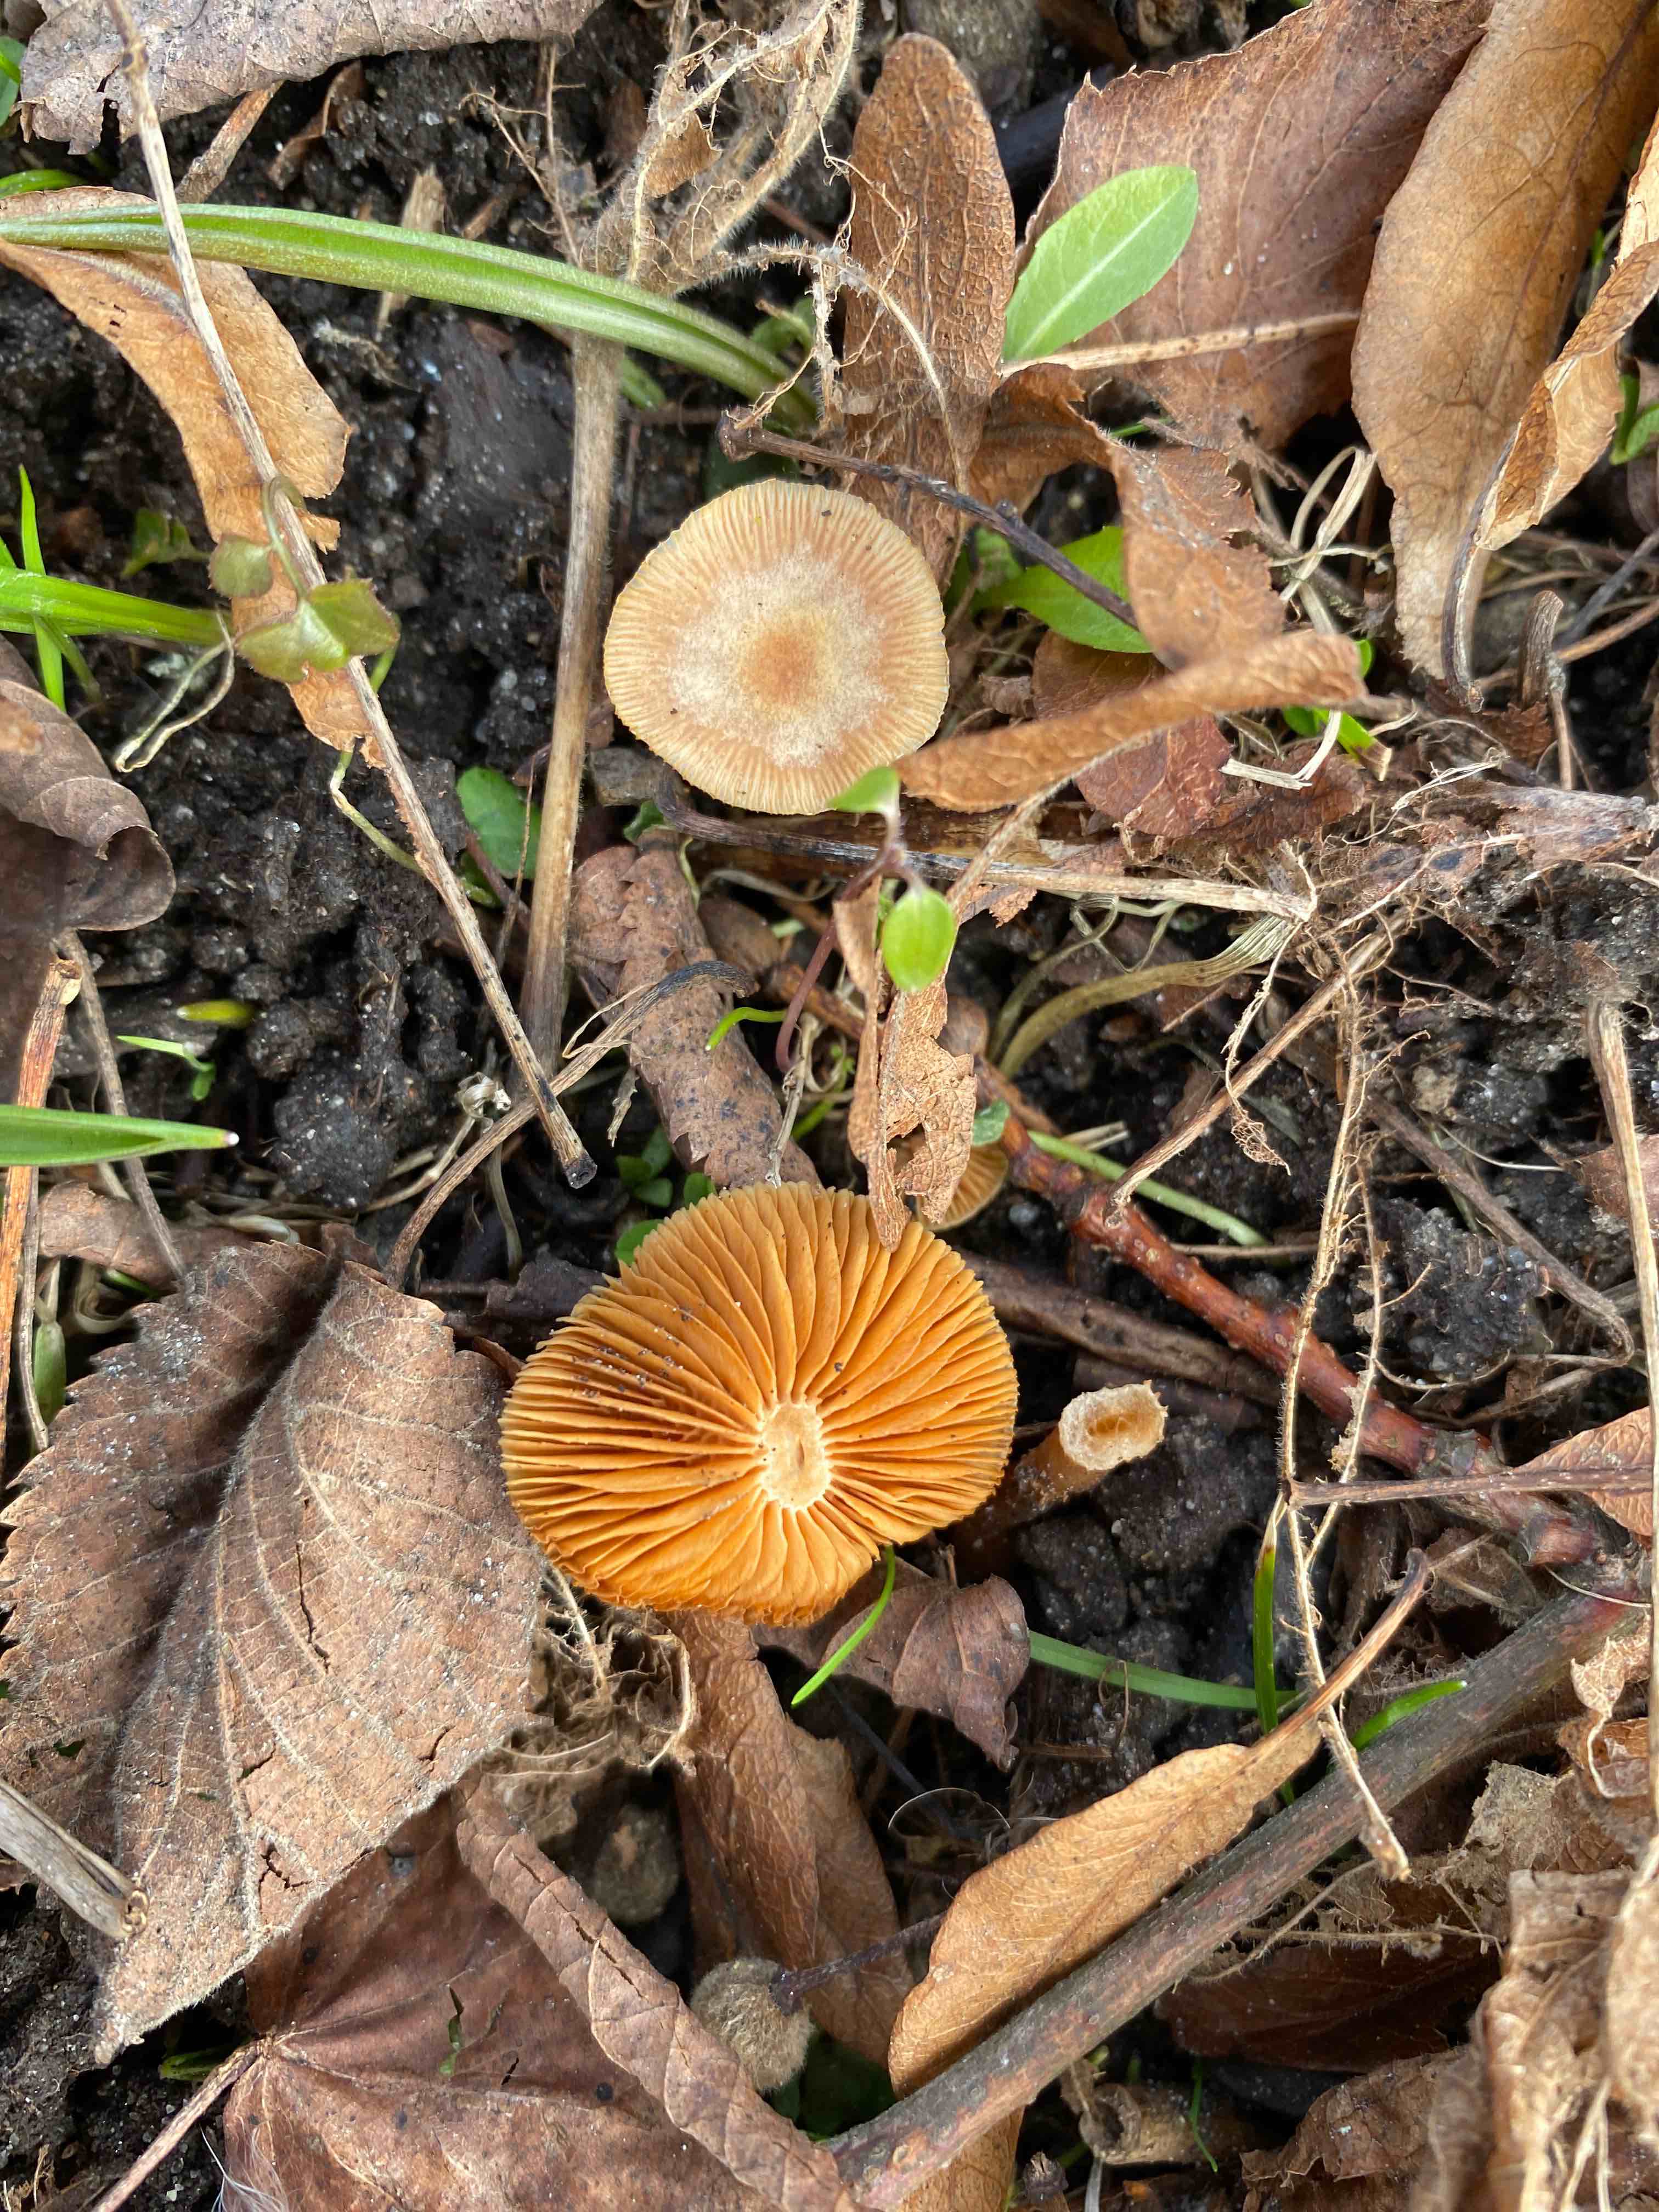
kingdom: Fungi
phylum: Basidiomycota
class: Agaricomycetes
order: Agaricales
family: Tubariaceae
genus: Tubaria
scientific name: Tubaria furfuracea
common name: kliddet fnughat
